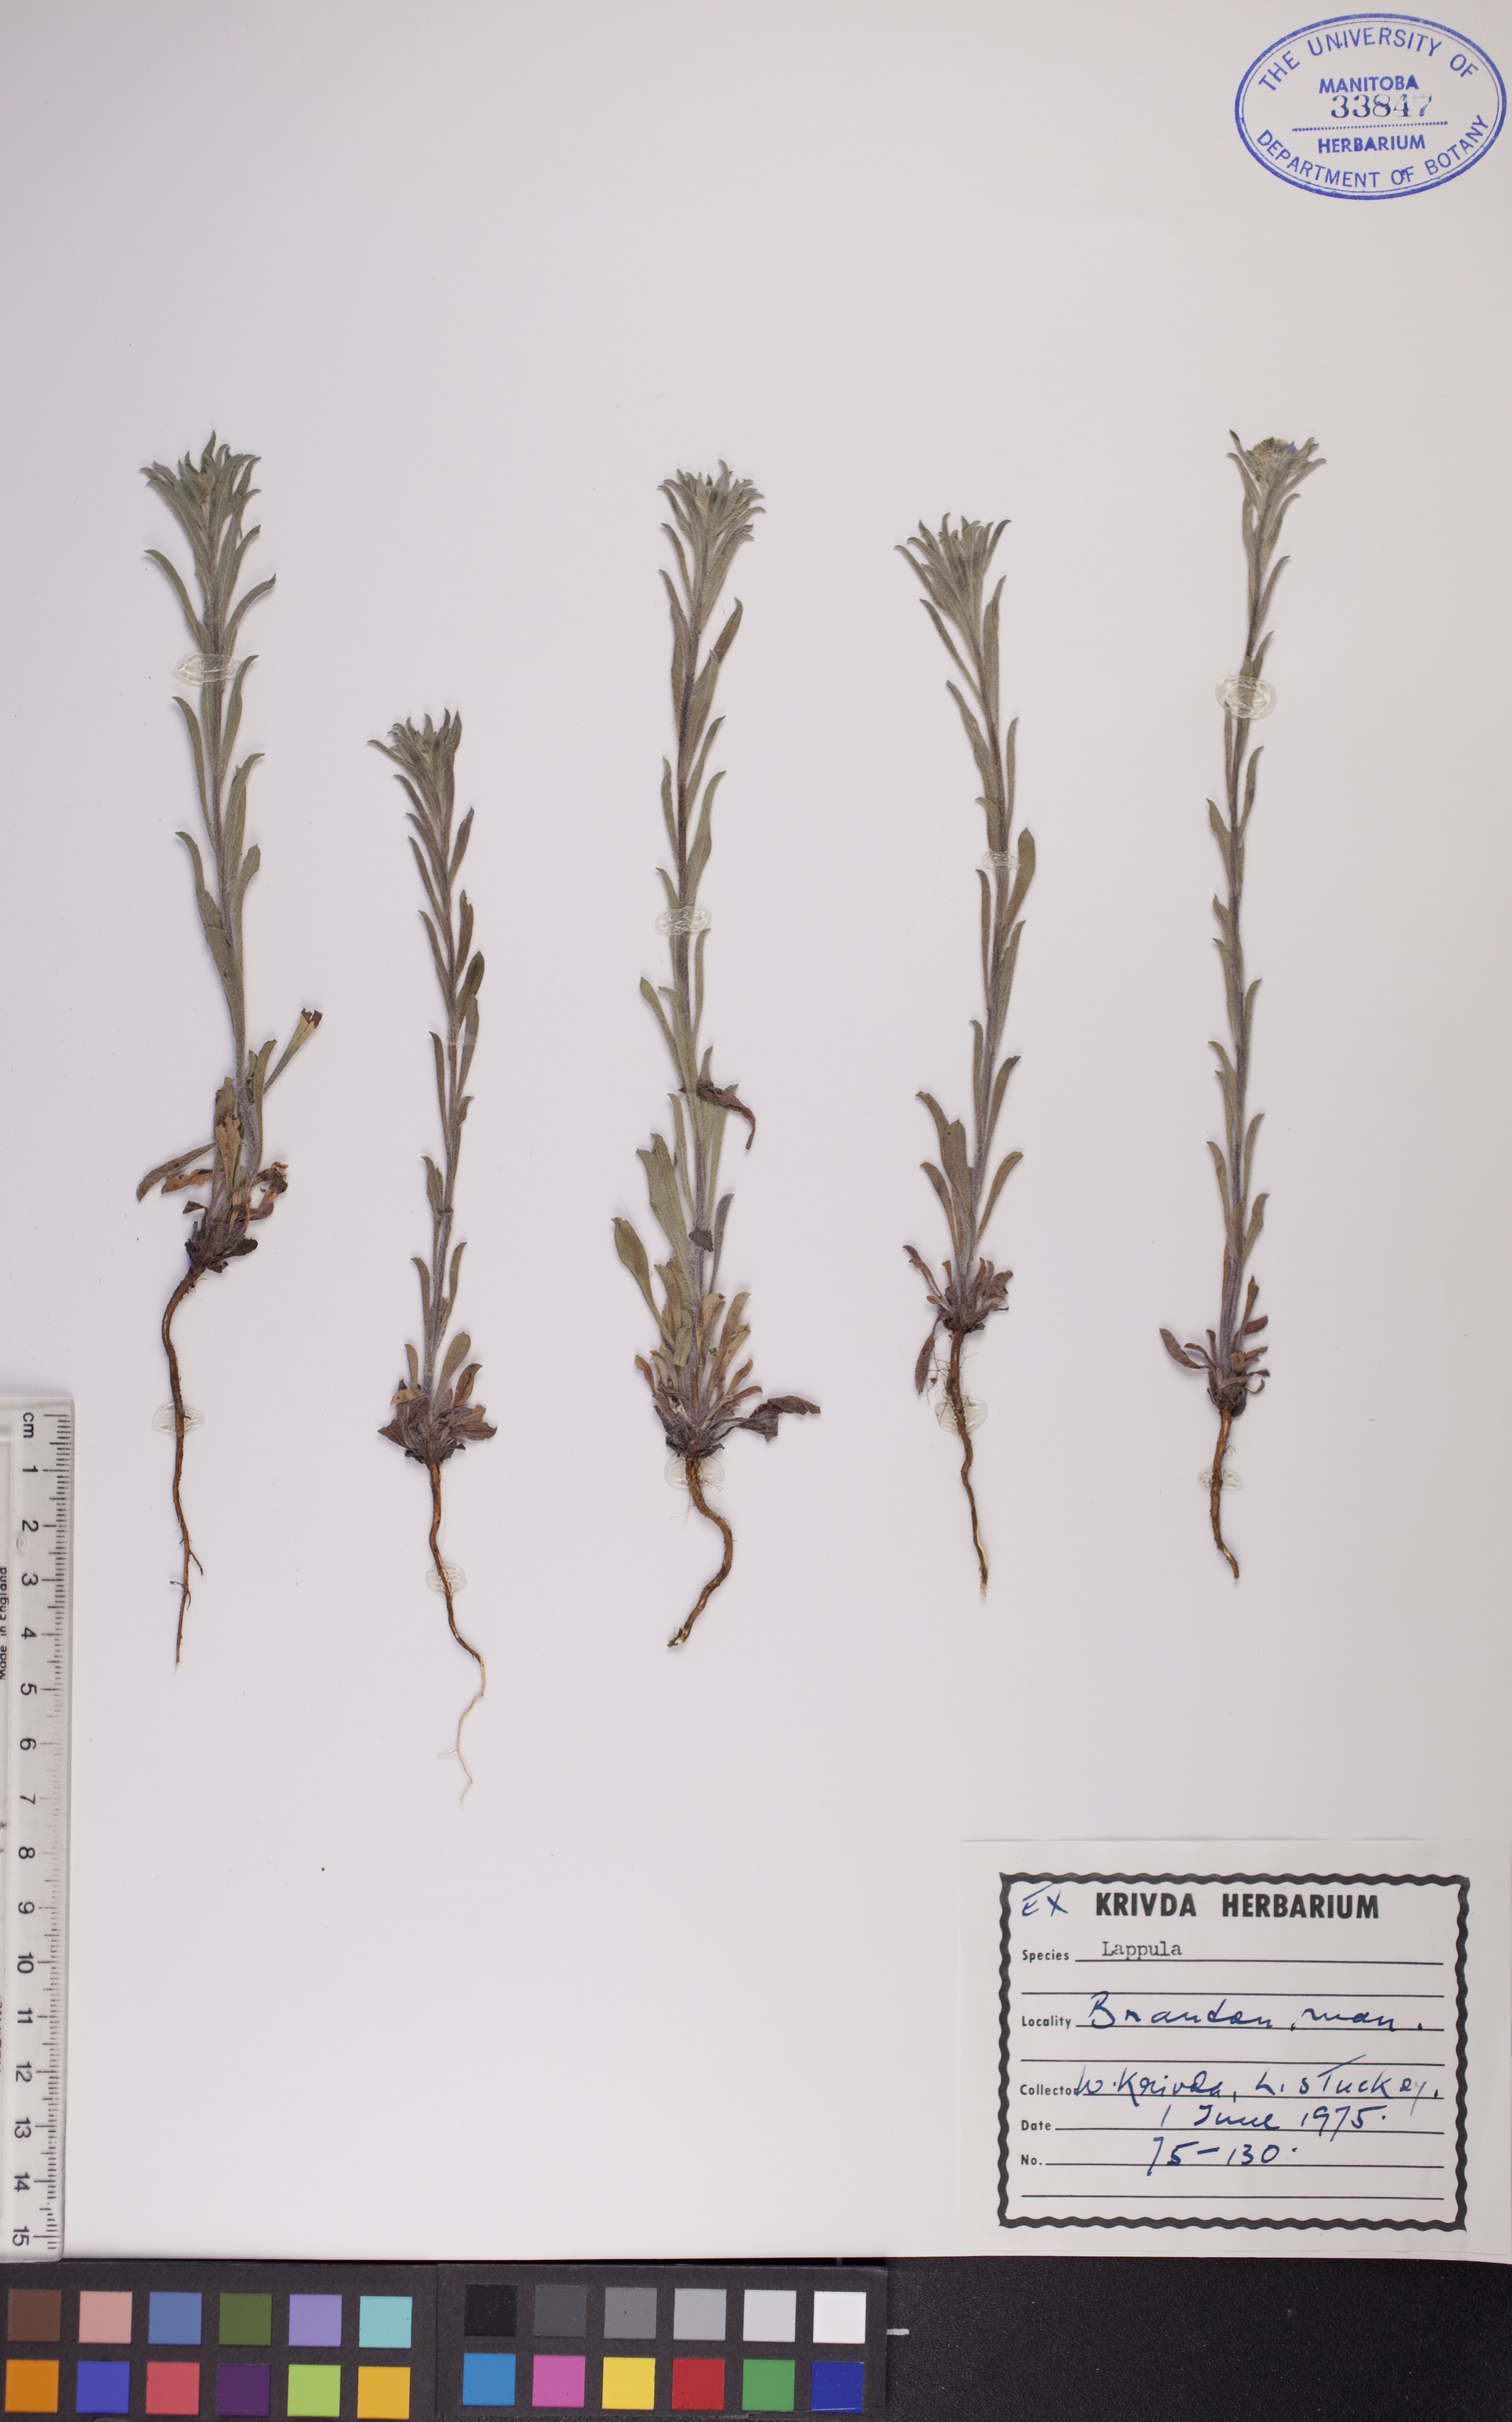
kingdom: Plantae
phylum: Tracheophyta
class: Magnoliopsida
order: Boraginales
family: Boraginaceae
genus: Lappula
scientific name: Lappula squarrosa
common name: European stickseed
